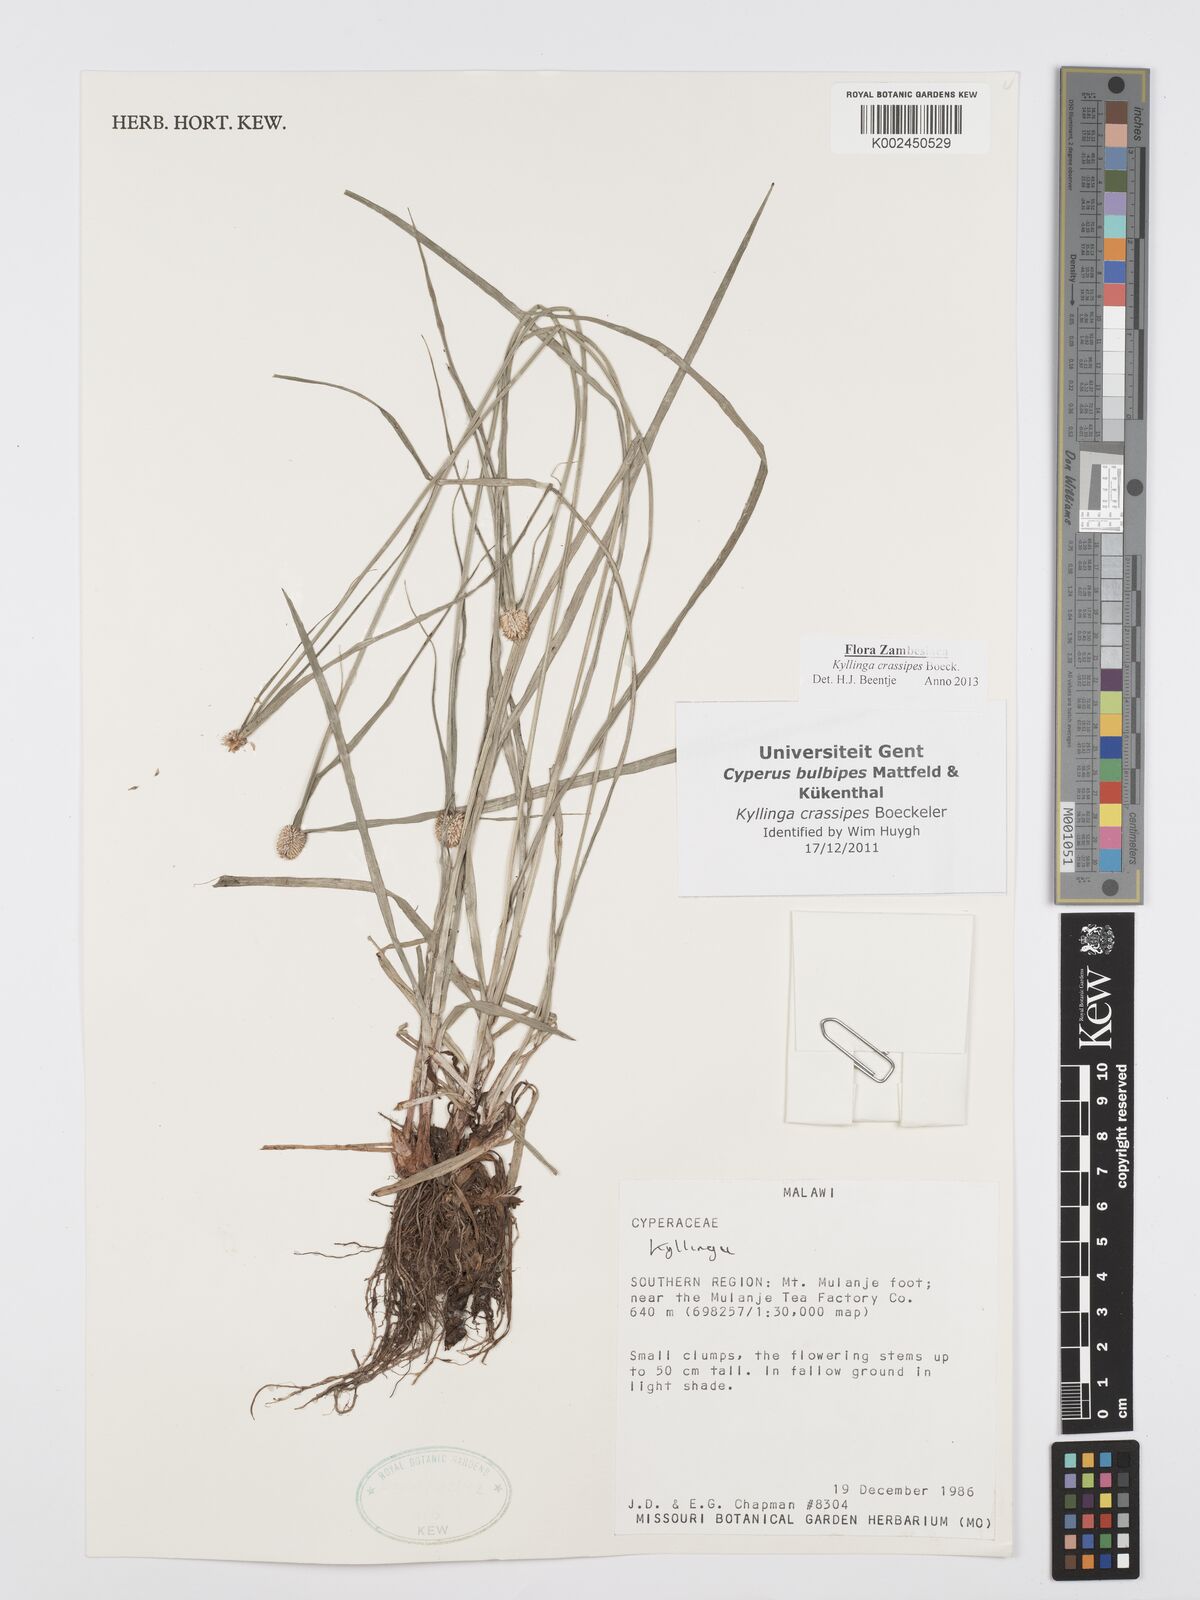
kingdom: Plantae
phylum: Tracheophyta
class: Liliopsida
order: Poales
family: Cyperaceae
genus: Cyperus
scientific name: Cyperus crassipes
